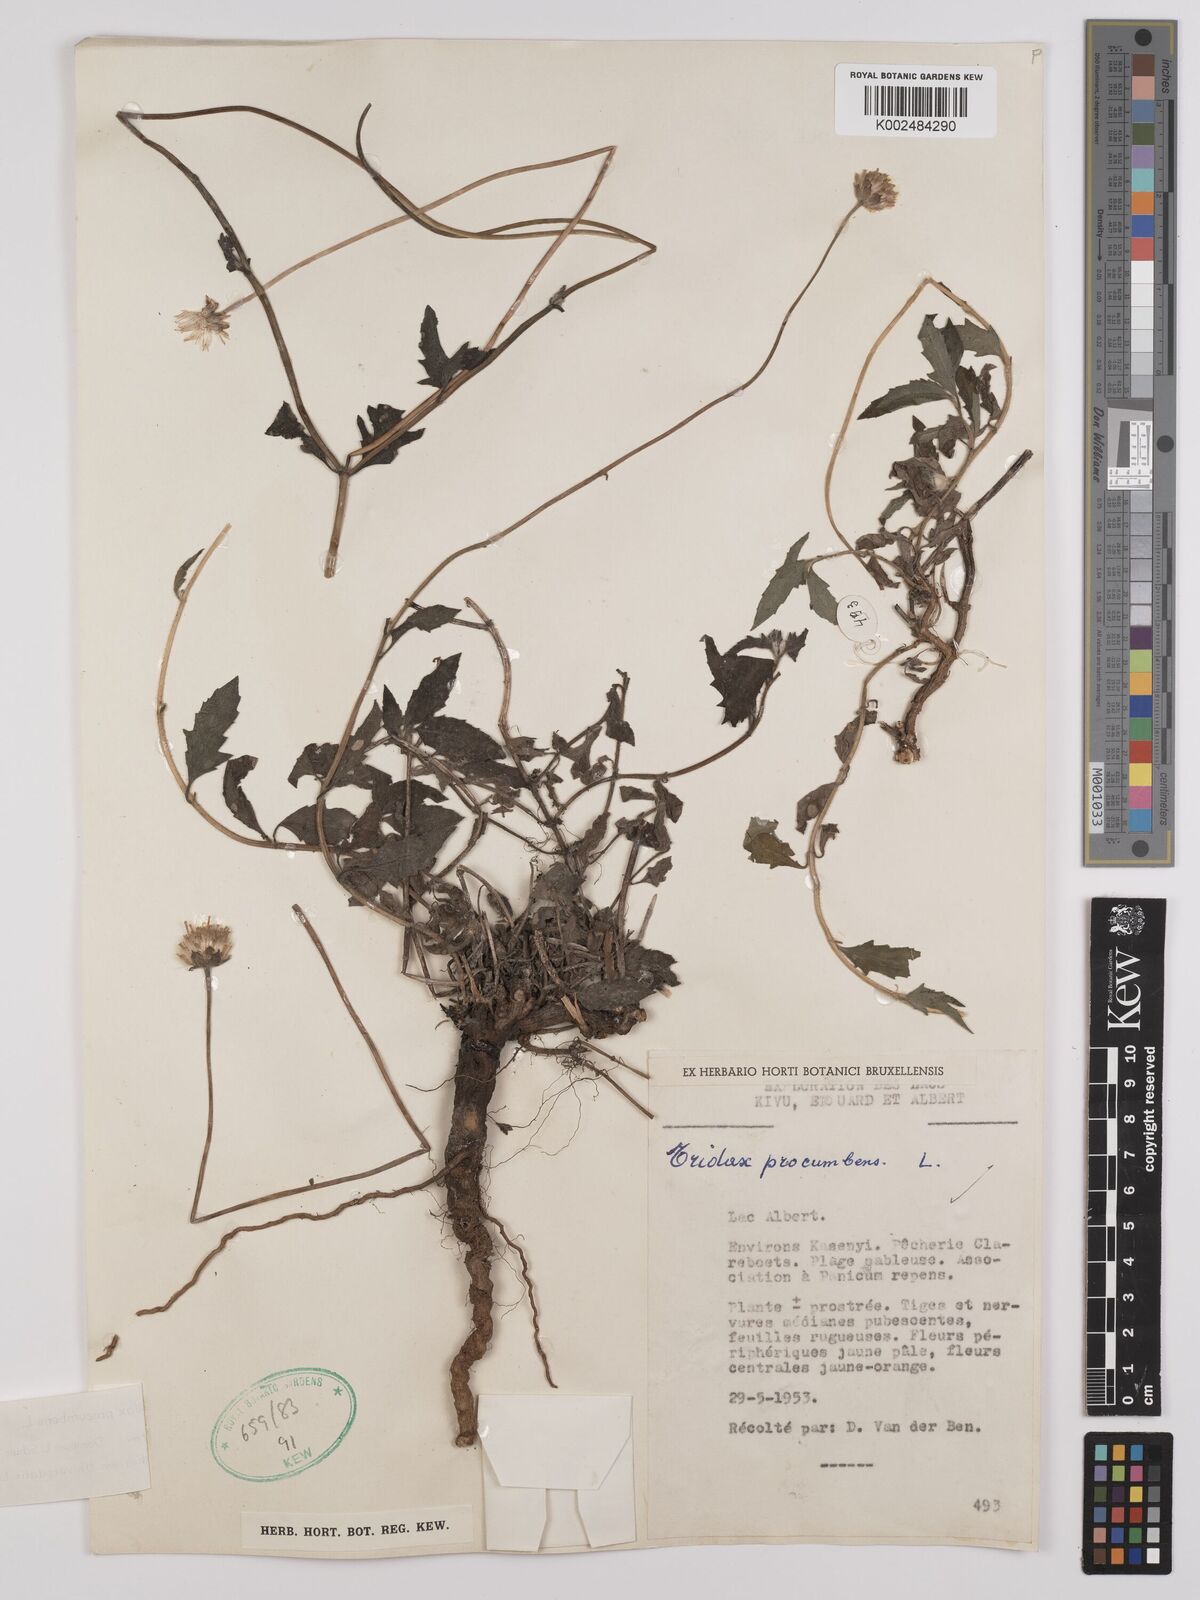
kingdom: Plantae
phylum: Tracheophyta
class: Magnoliopsida
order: Asterales
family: Asteraceae
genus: Tridax
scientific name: Tridax procumbens
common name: Coatbuttons
